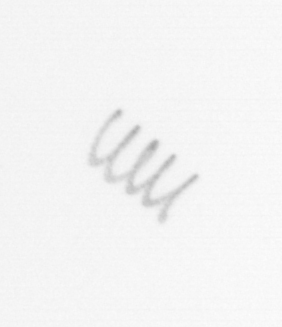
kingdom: Chromista
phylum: Ochrophyta
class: Bacillariophyceae
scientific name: Bacillariophyceae
